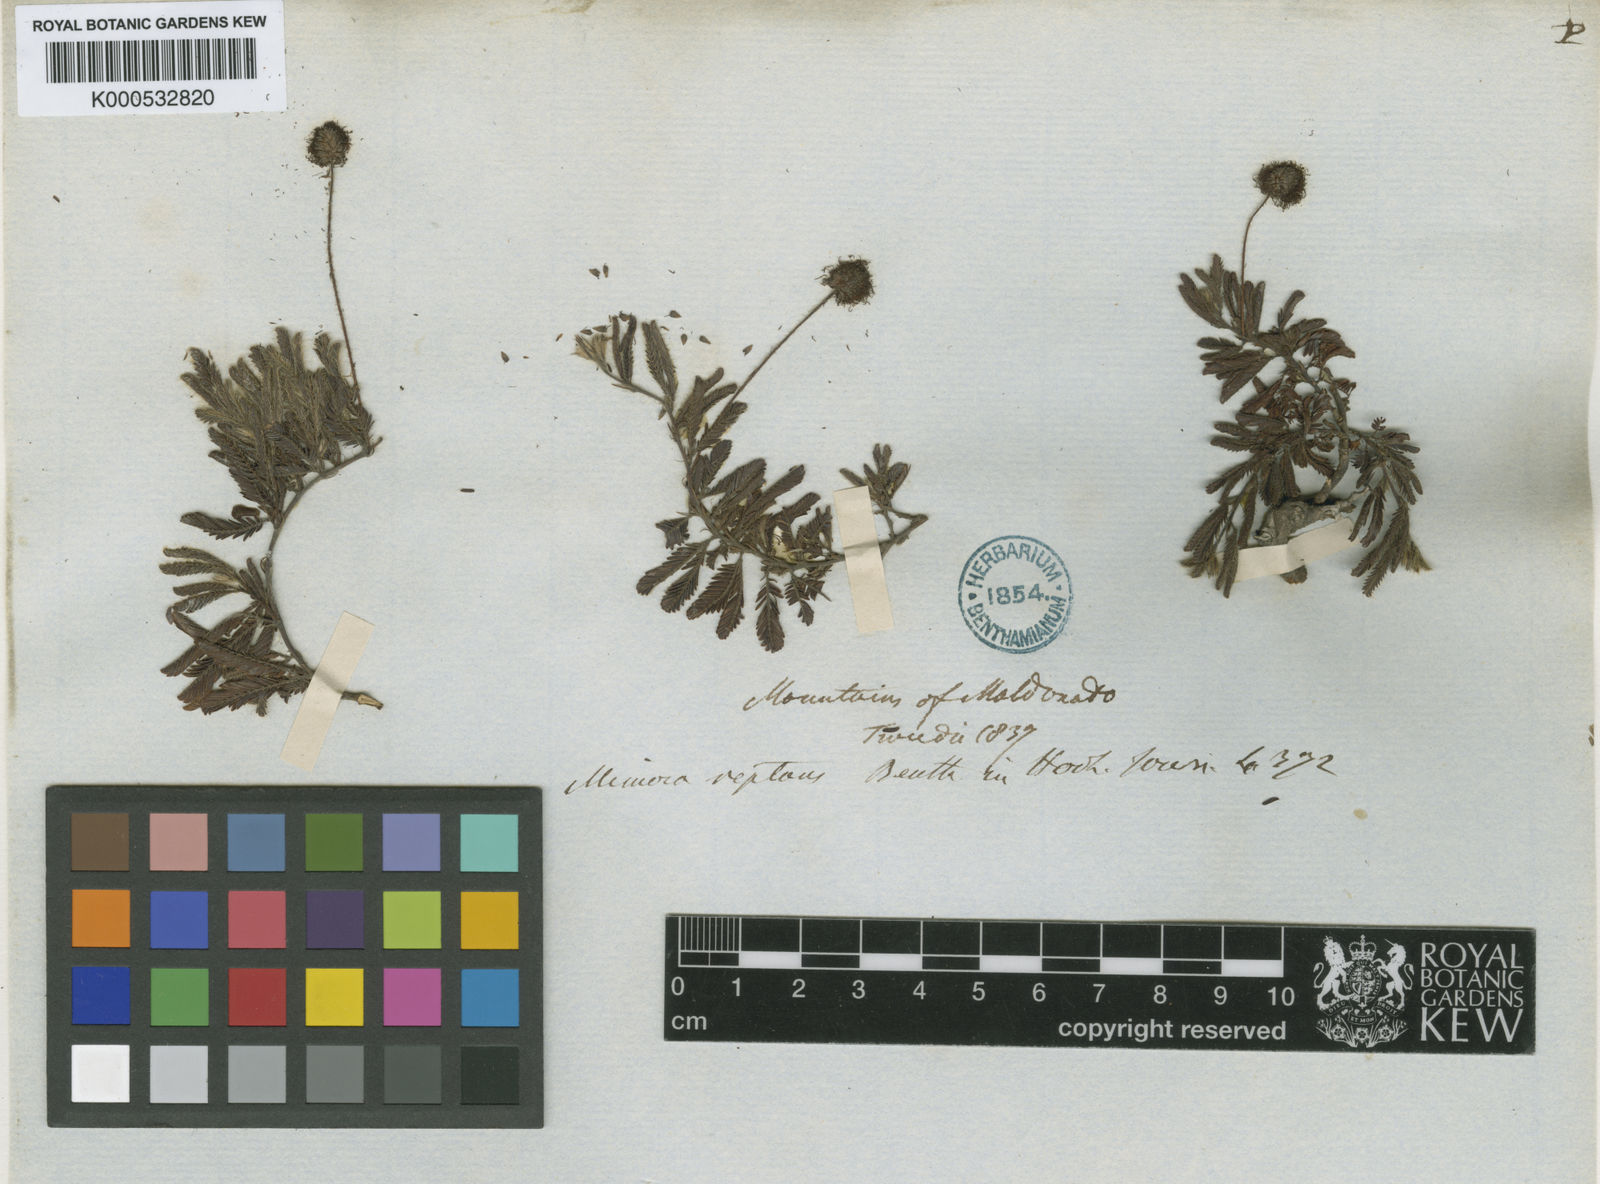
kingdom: Plantae
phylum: Tracheophyta
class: Magnoliopsida
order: Fabales
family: Fabaceae
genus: Mimosa
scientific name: Mimosa reptans
